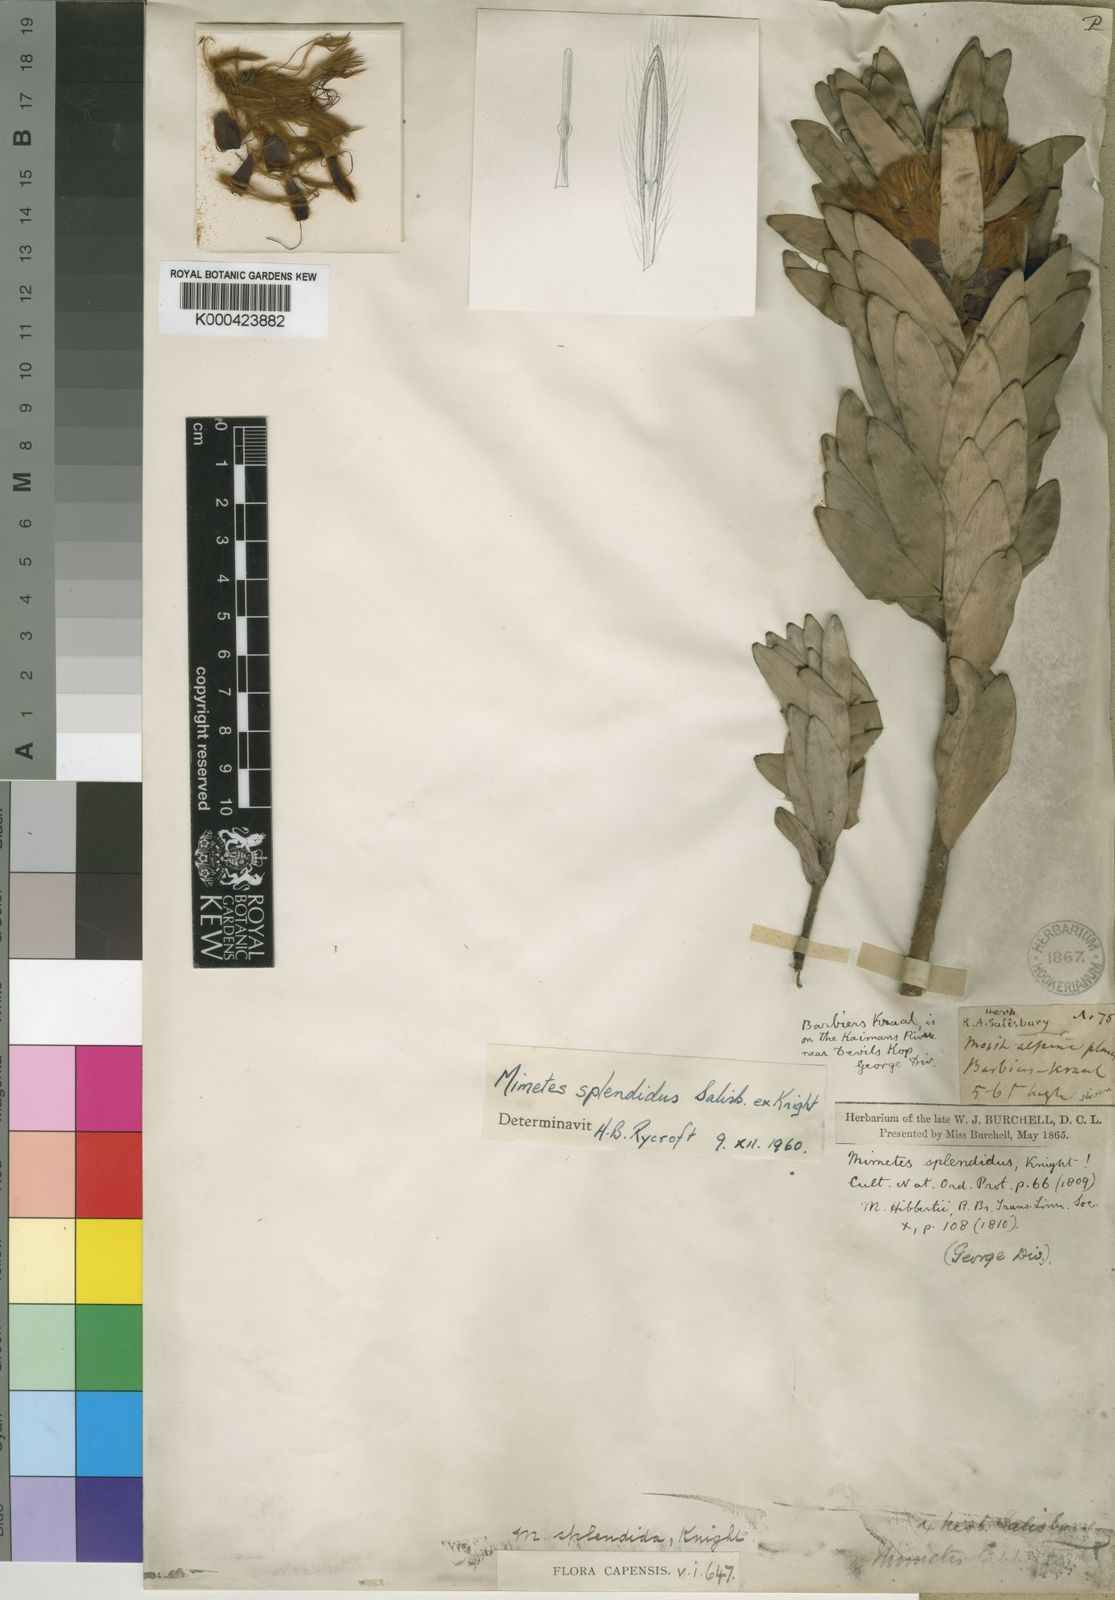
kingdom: Plantae
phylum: Tracheophyta
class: Magnoliopsida
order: Proteales
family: Proteaceae
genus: Mimetes
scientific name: Mimetes splendidus
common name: Splendid pagoda
